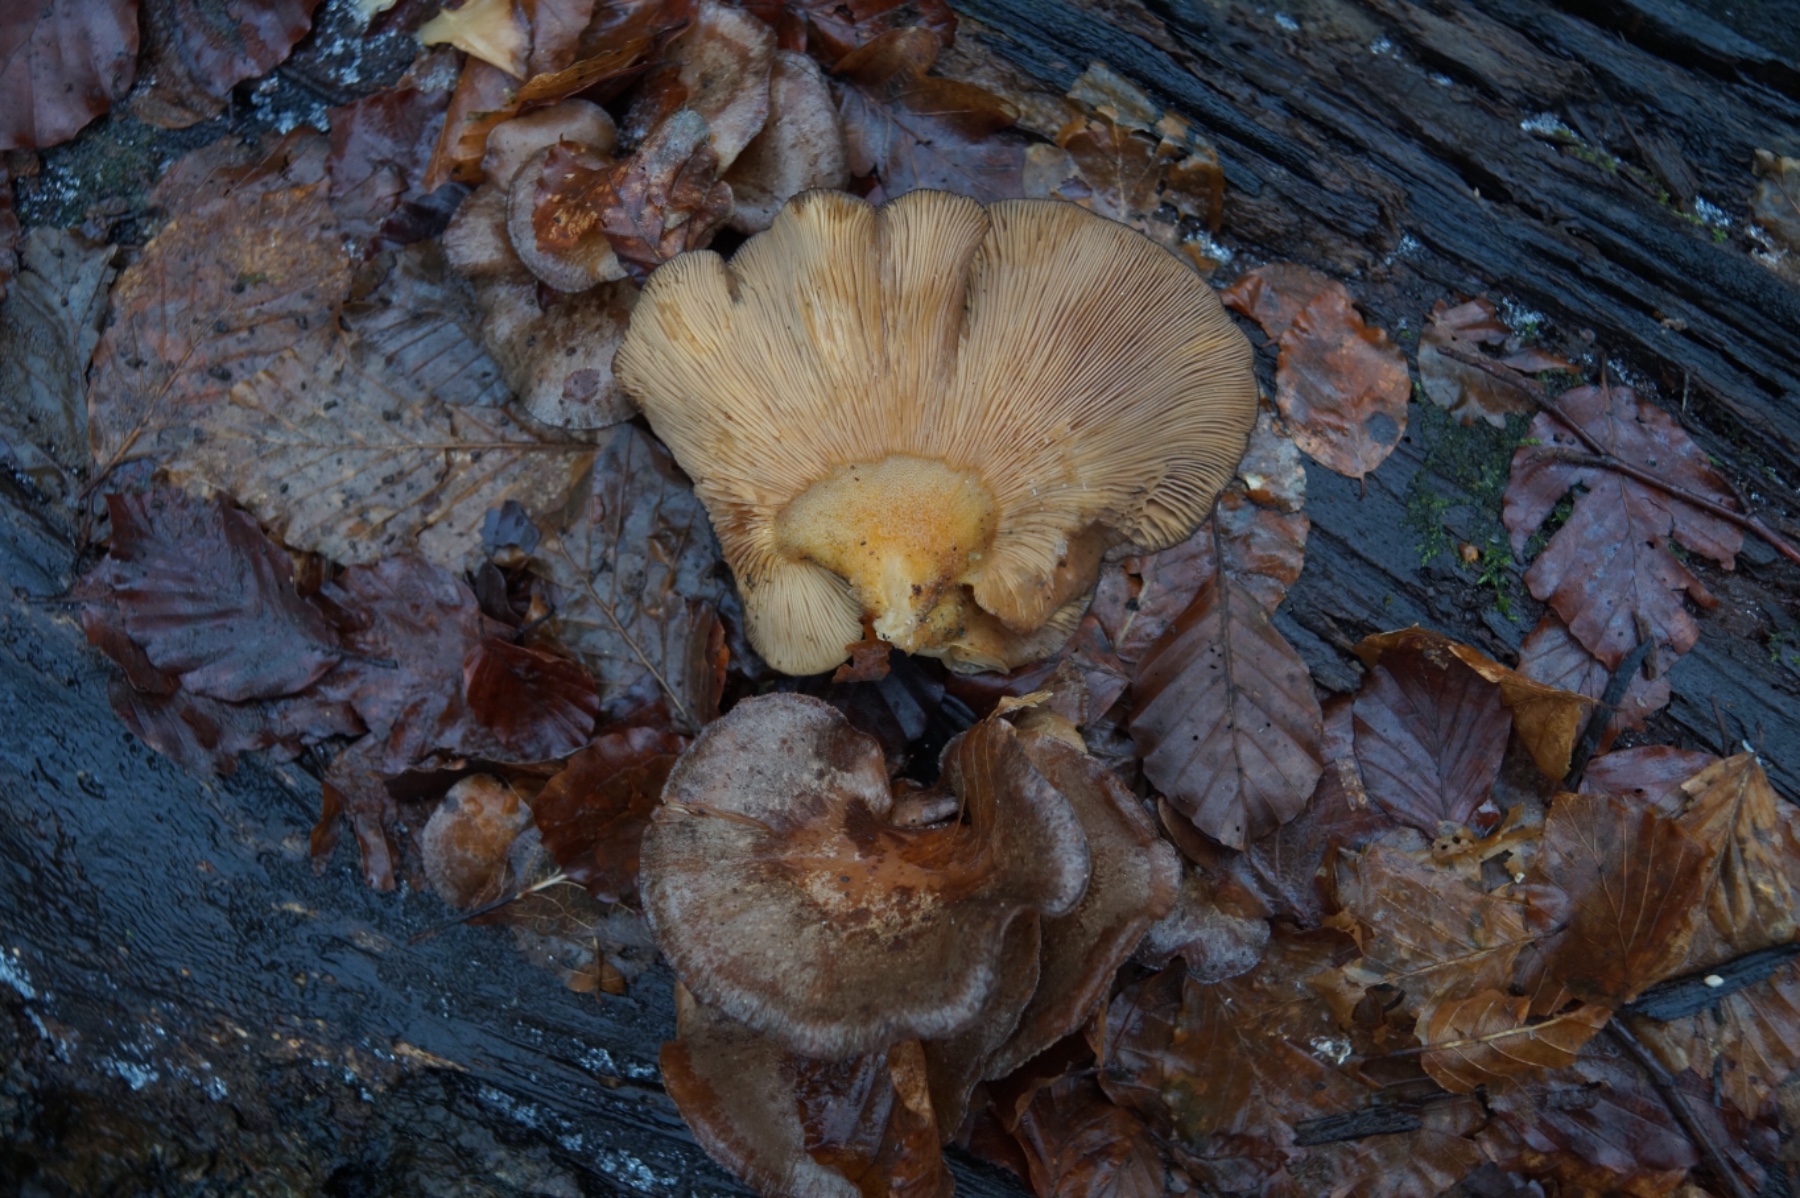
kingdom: Fungi
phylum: Basidiomycota
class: Agaricomycetes
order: Agaricales
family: Sarcomyxaceae
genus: Sarcomyxa
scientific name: Sarcomyxa serotina
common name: gummihat
